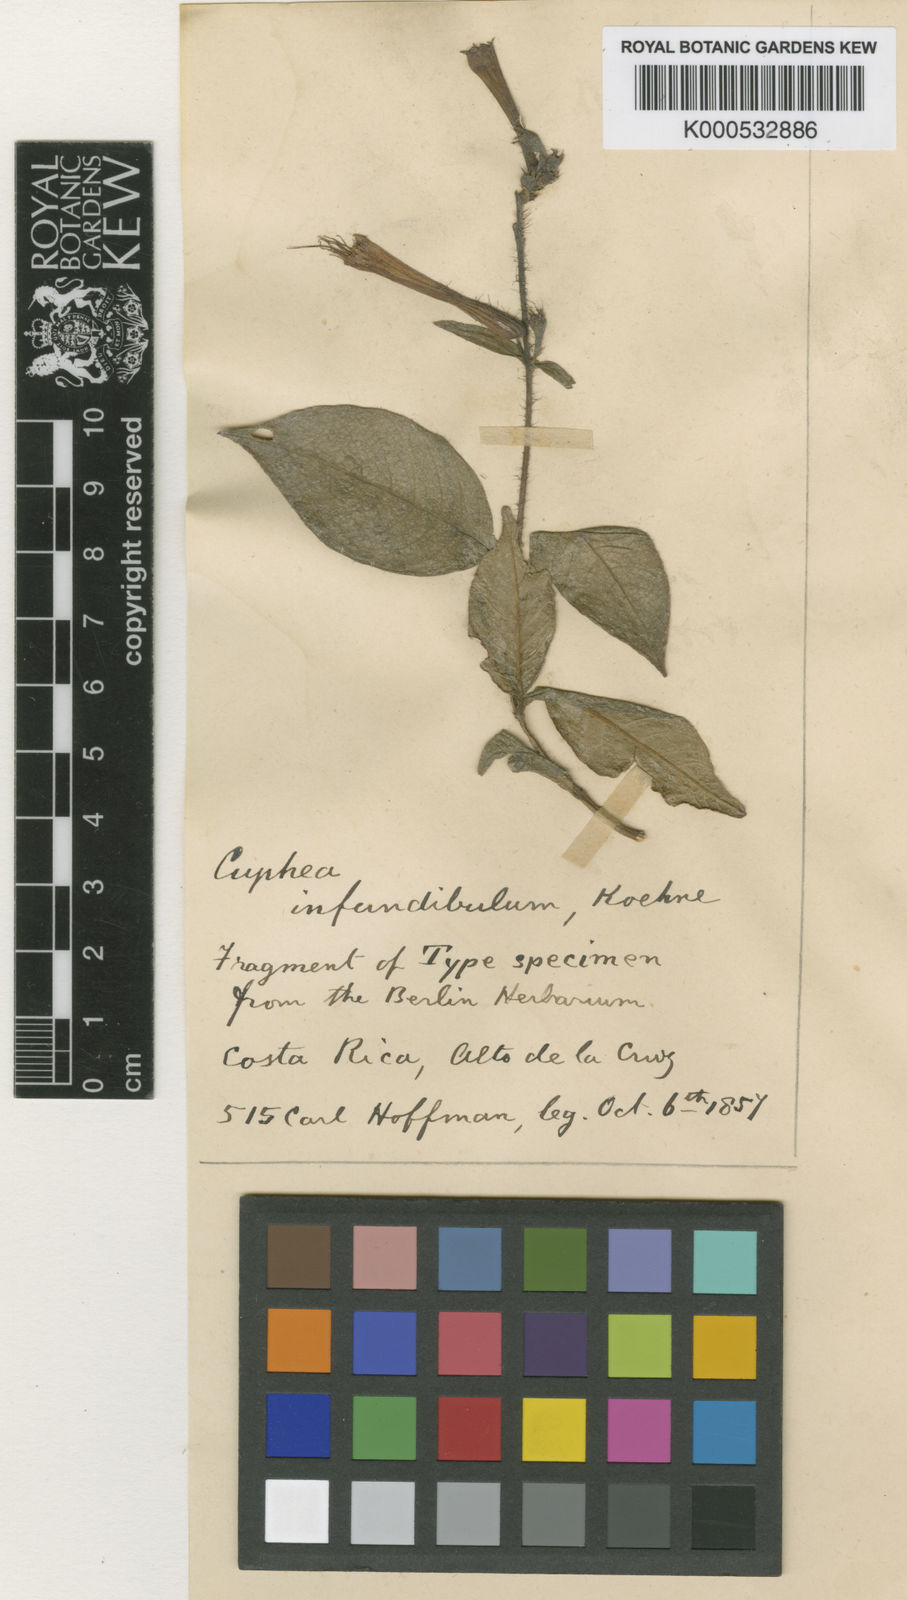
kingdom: Plantae
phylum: Tracheophyta
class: Magnoliopsida
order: Myrtales
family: Lythraceae
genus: Cuphea
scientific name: Cuphea appendiculata
